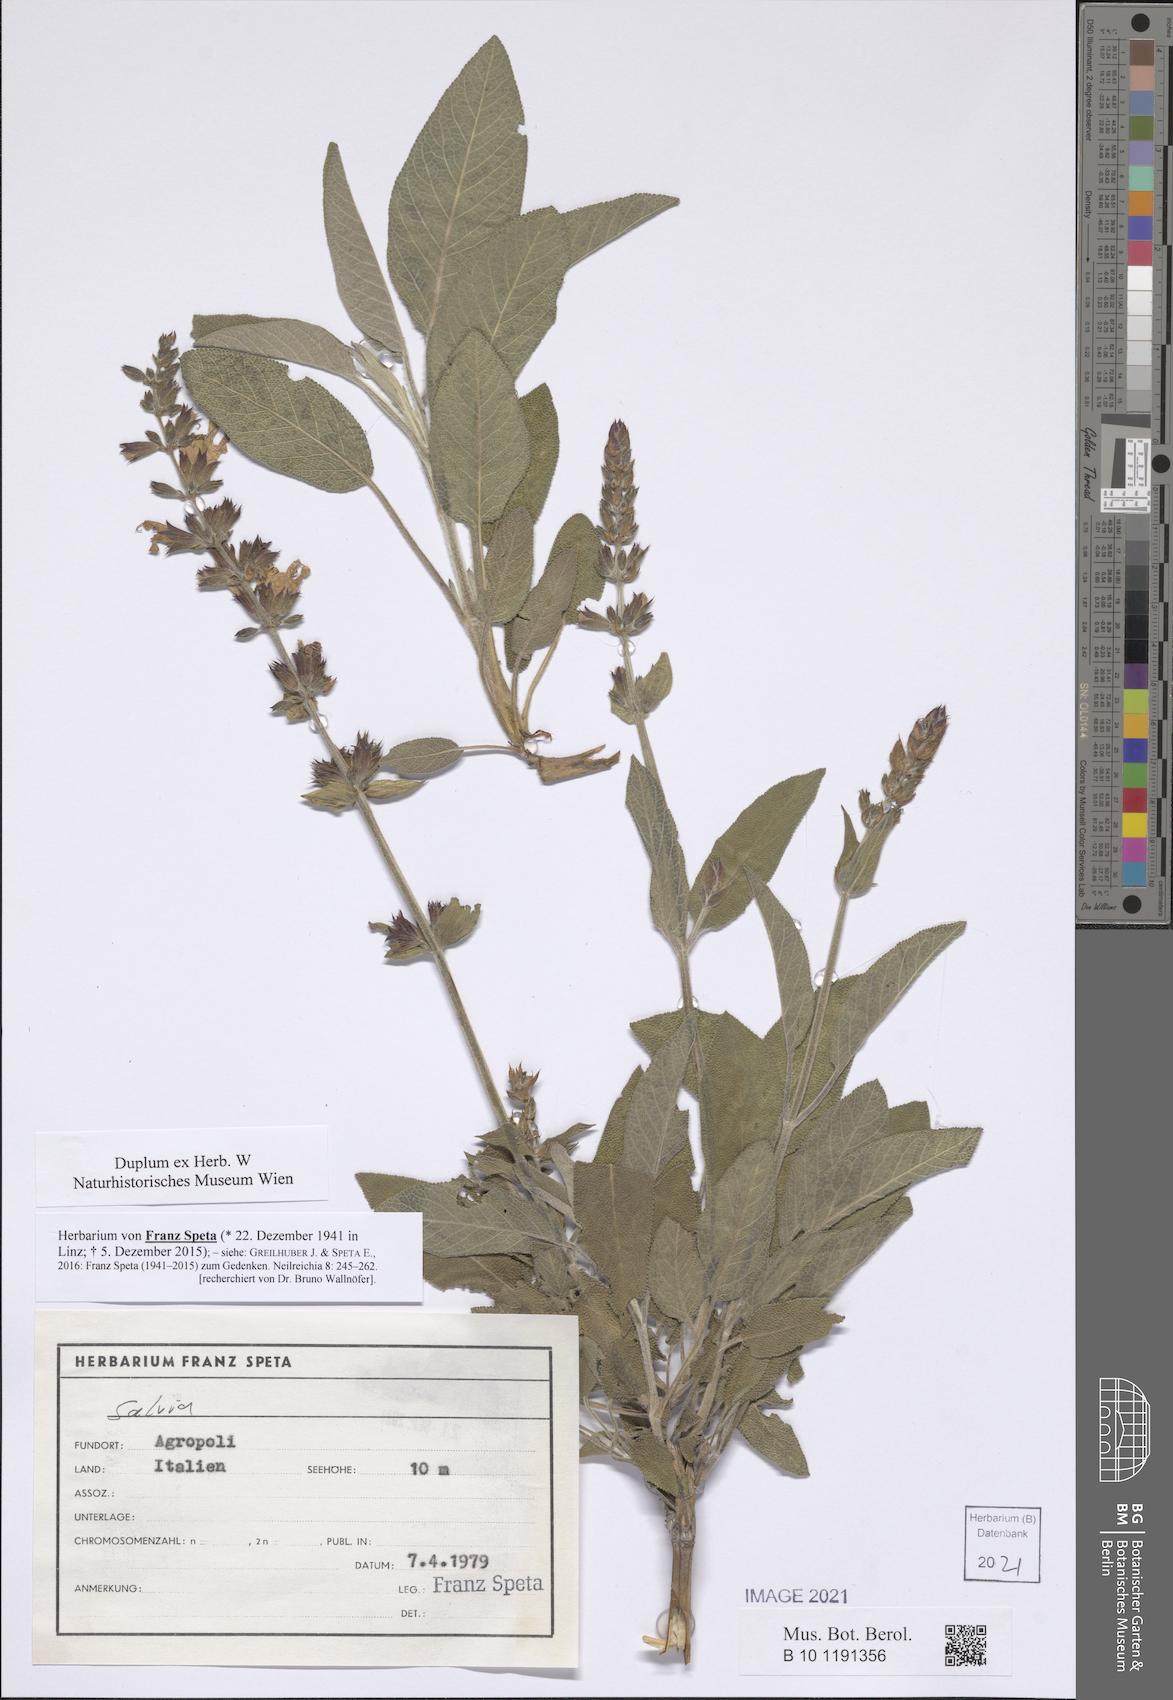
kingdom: Plantae
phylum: Tracheophyta
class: Magnoliopsida
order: Lamiales
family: Lamiaceae
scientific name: Lamiaceae
